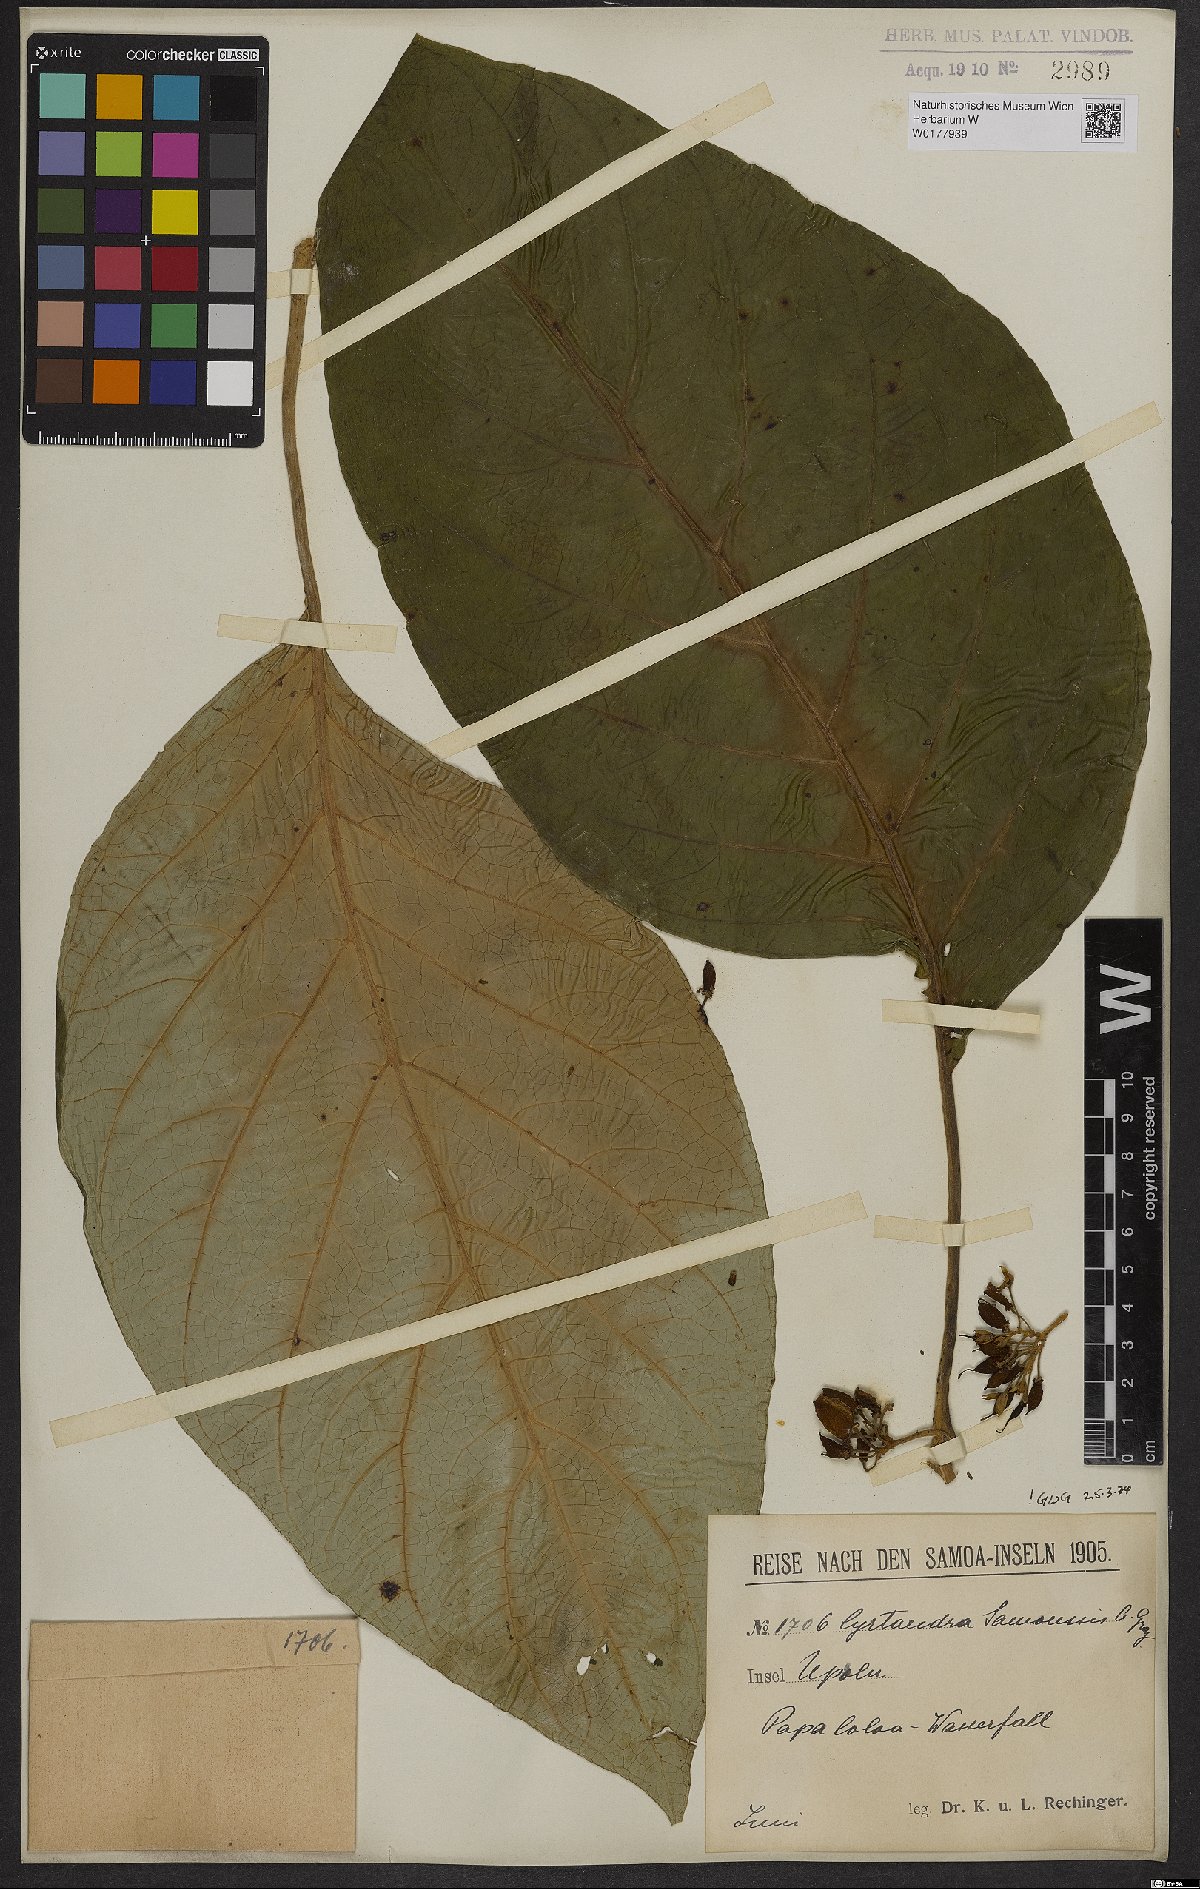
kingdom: Plantae
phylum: Tracheophyta
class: Magnoliopsida
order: Lamiales
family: Gesneriaceae
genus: Cyrtandra
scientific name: Cyrtandra samoensis
